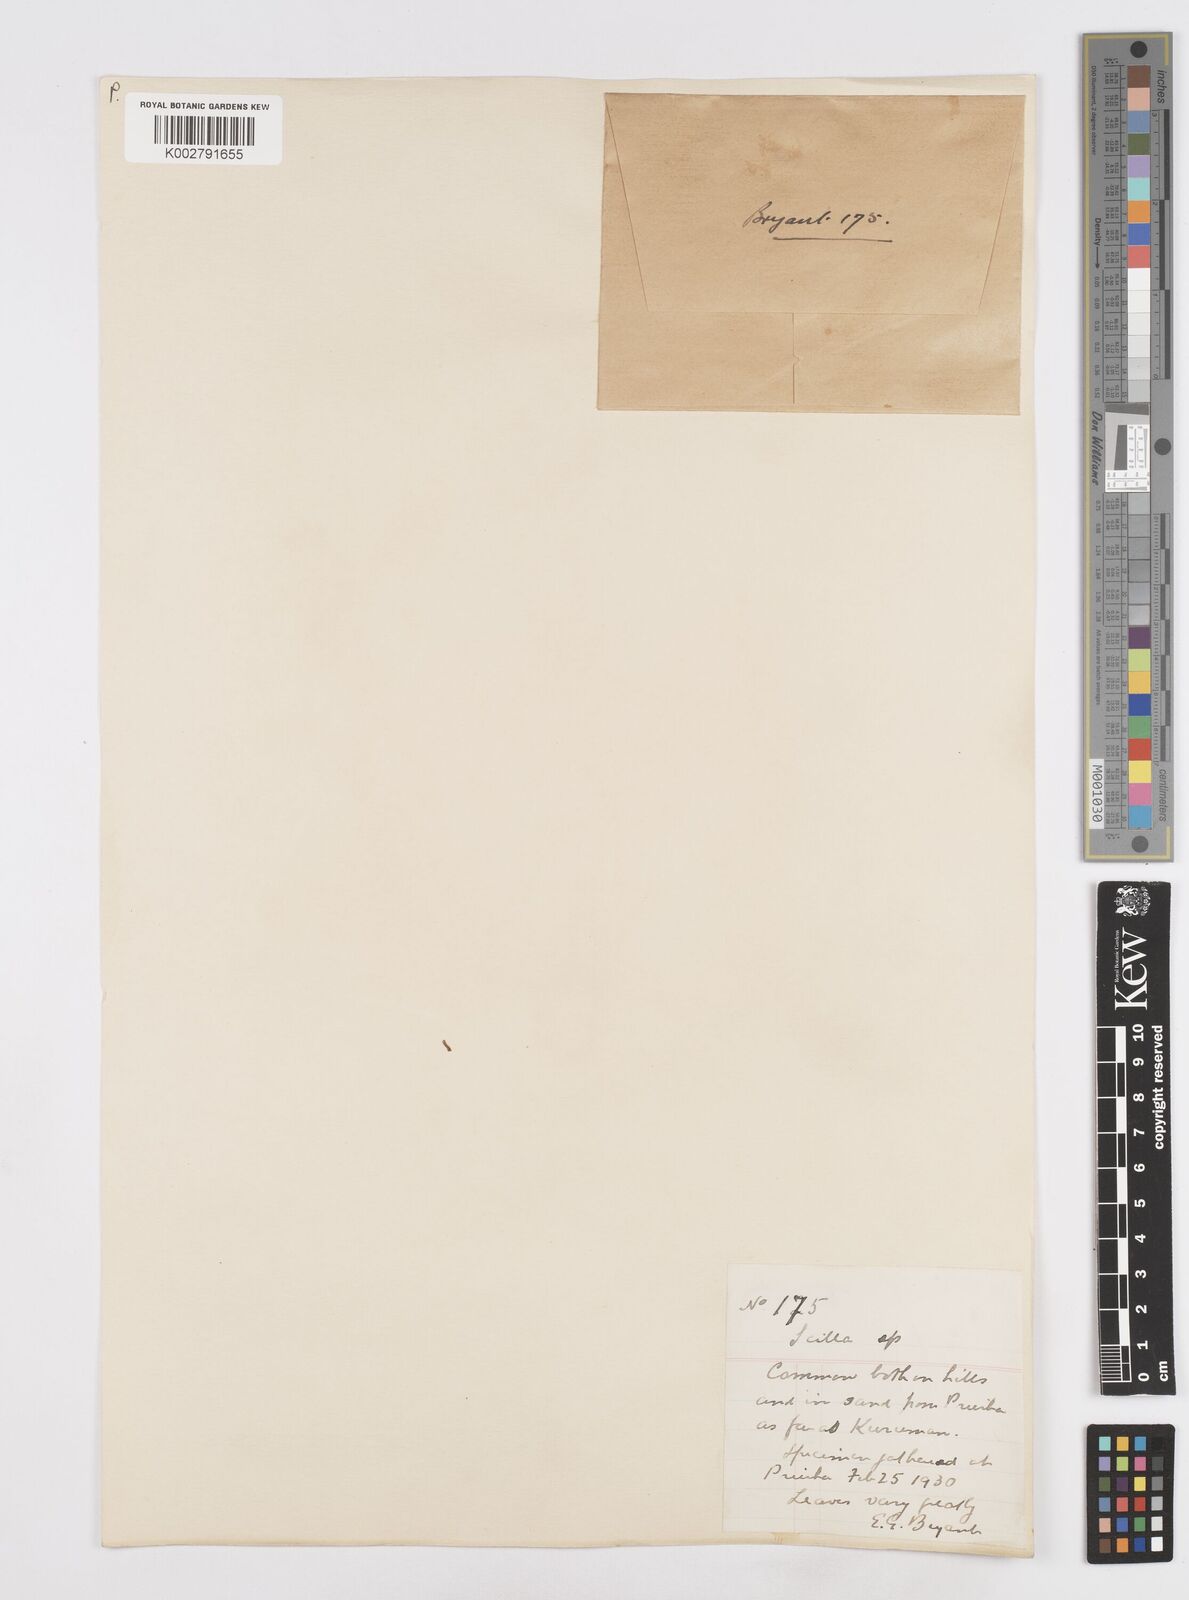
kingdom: Plantae
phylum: Tracheophyta
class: Liliopsida
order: Asparagales
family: Asparagaceae
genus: Scilla
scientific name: Scilla
